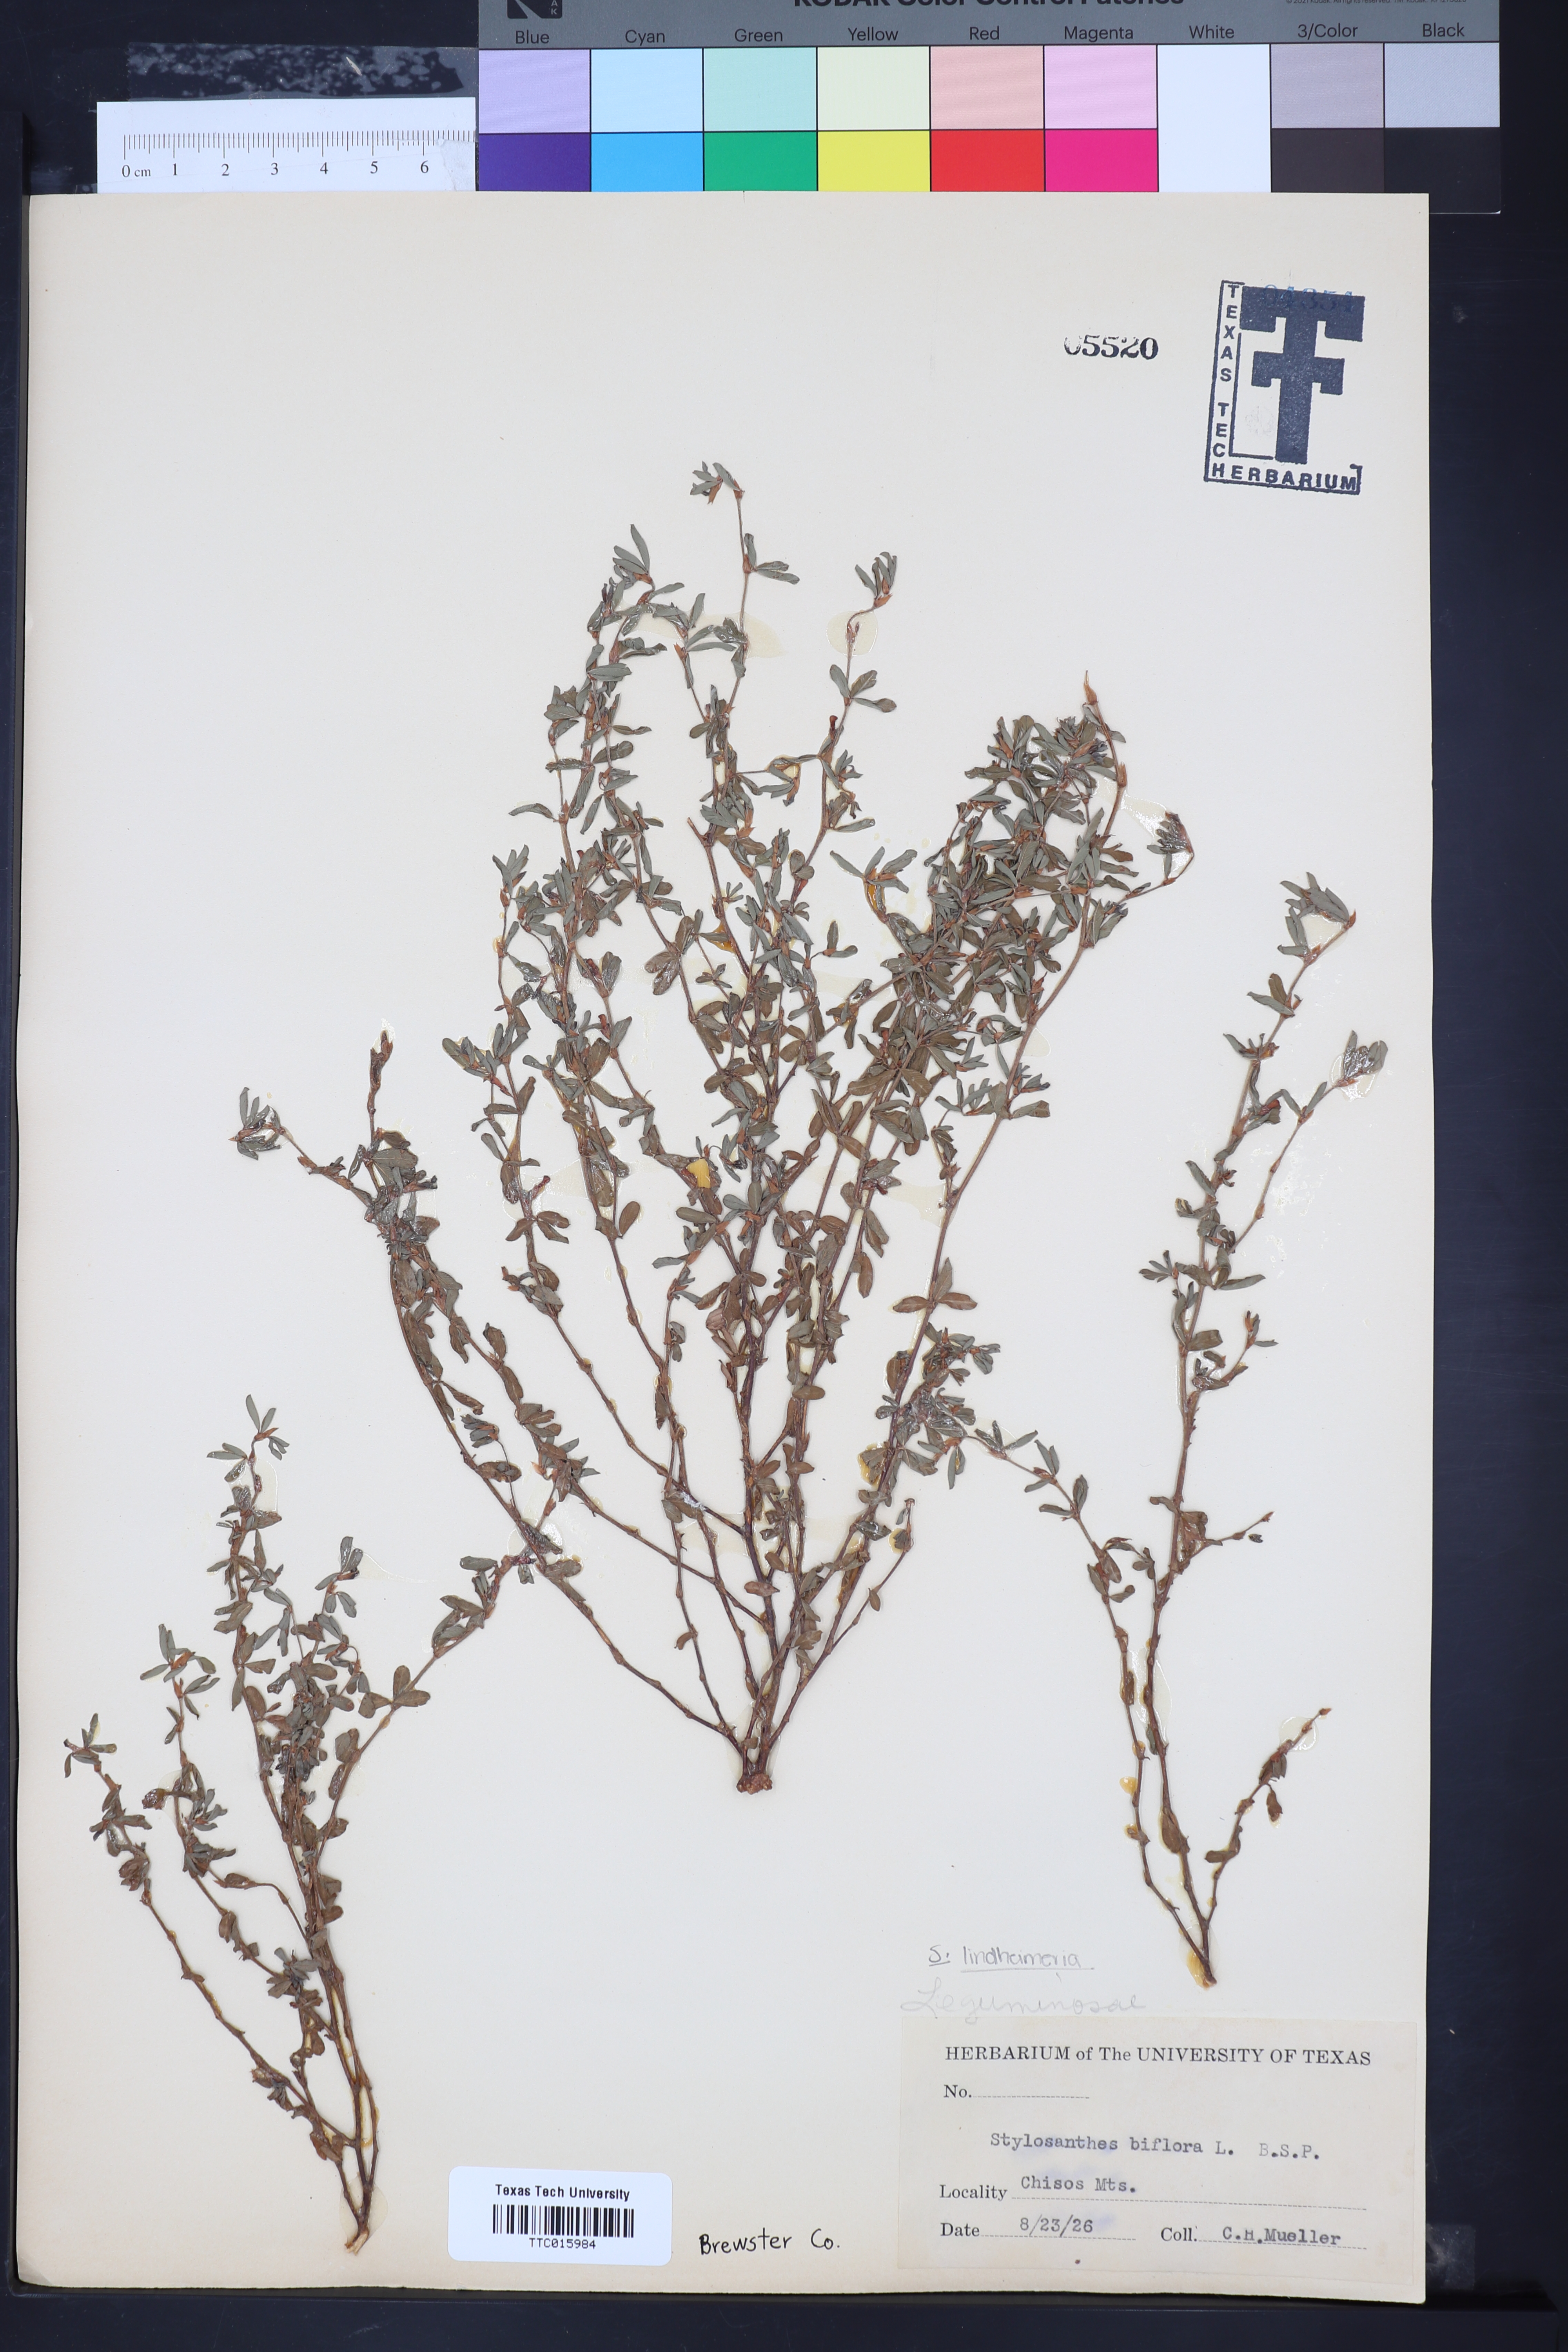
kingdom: Plantae
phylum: Tracheophyta
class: Magnoliopsida
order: Fabales
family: Fabaceae
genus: Stylosanthes
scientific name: Stylosanthes biflora
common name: Two-flower pencil-flower
